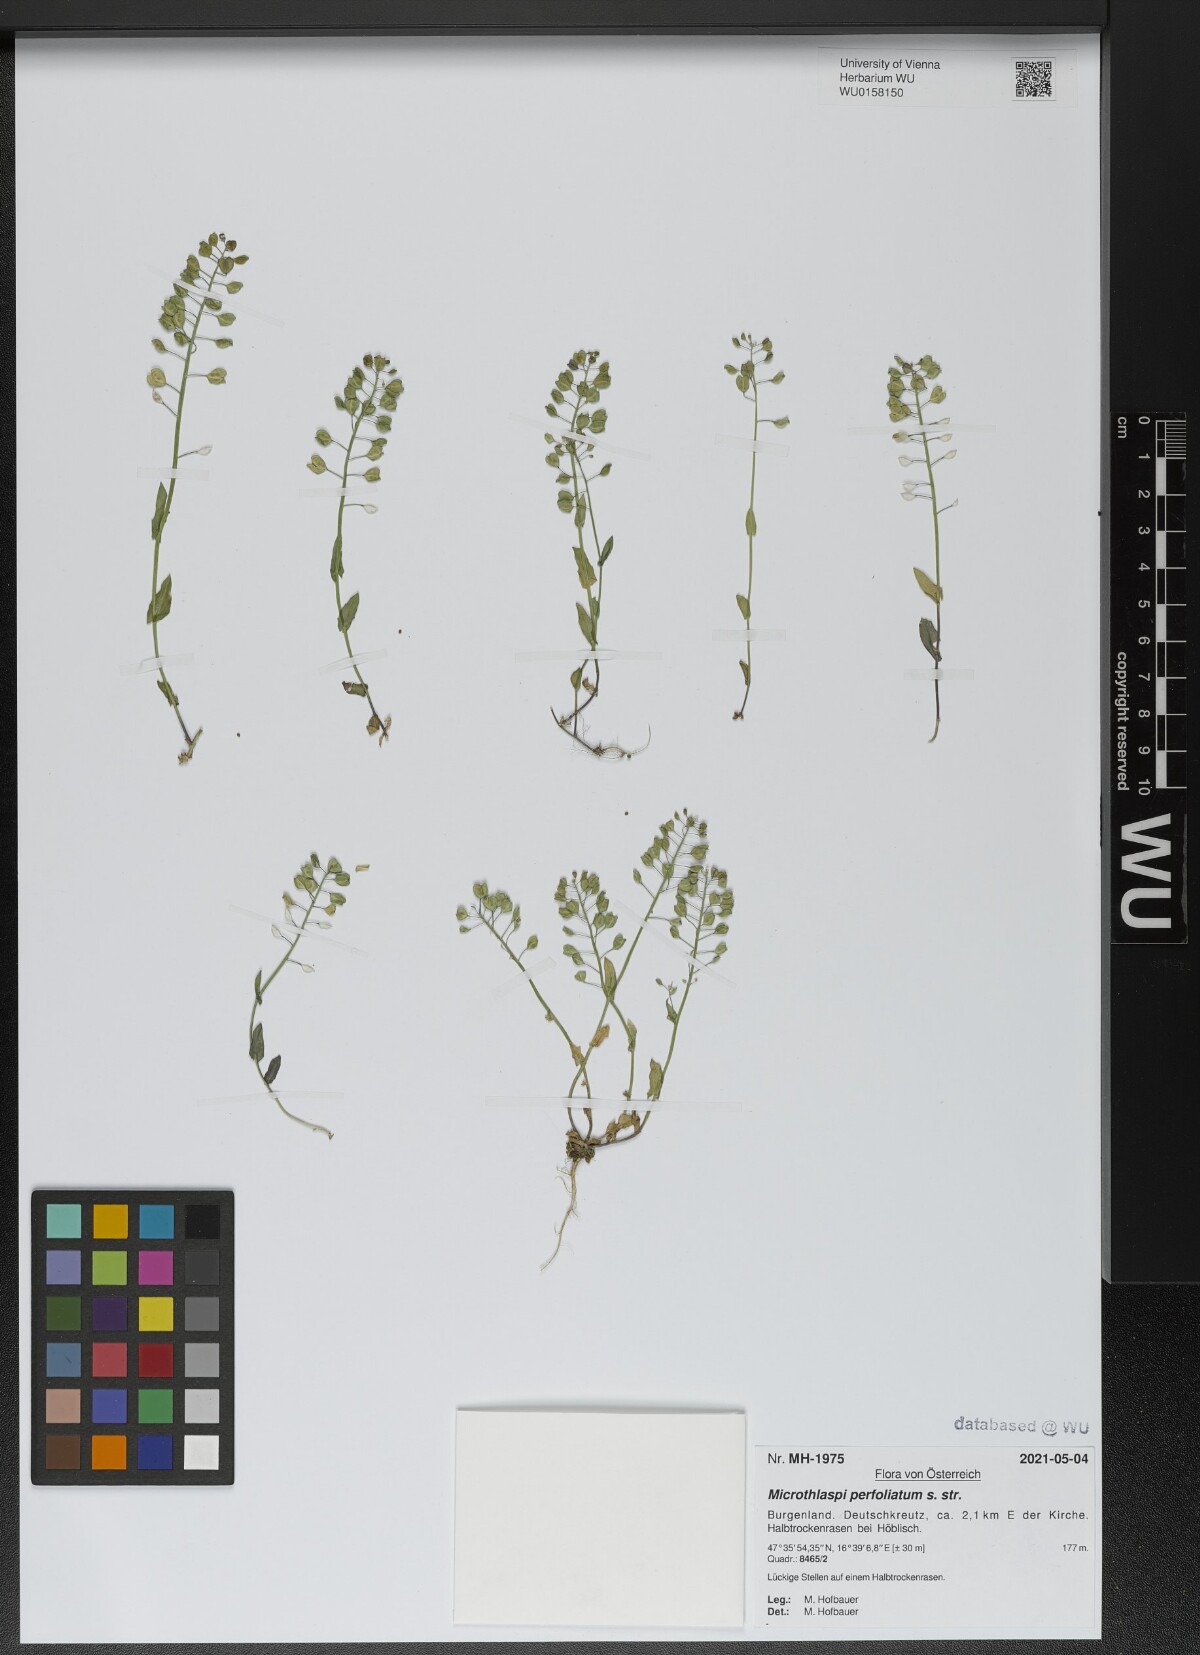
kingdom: Plantae
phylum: Tracheophyta
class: Magnoliopsida
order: Brassicales
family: Brassicaceae
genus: Noccaea
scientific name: Noccaea perfoliata
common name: Perfoliate pennycress
